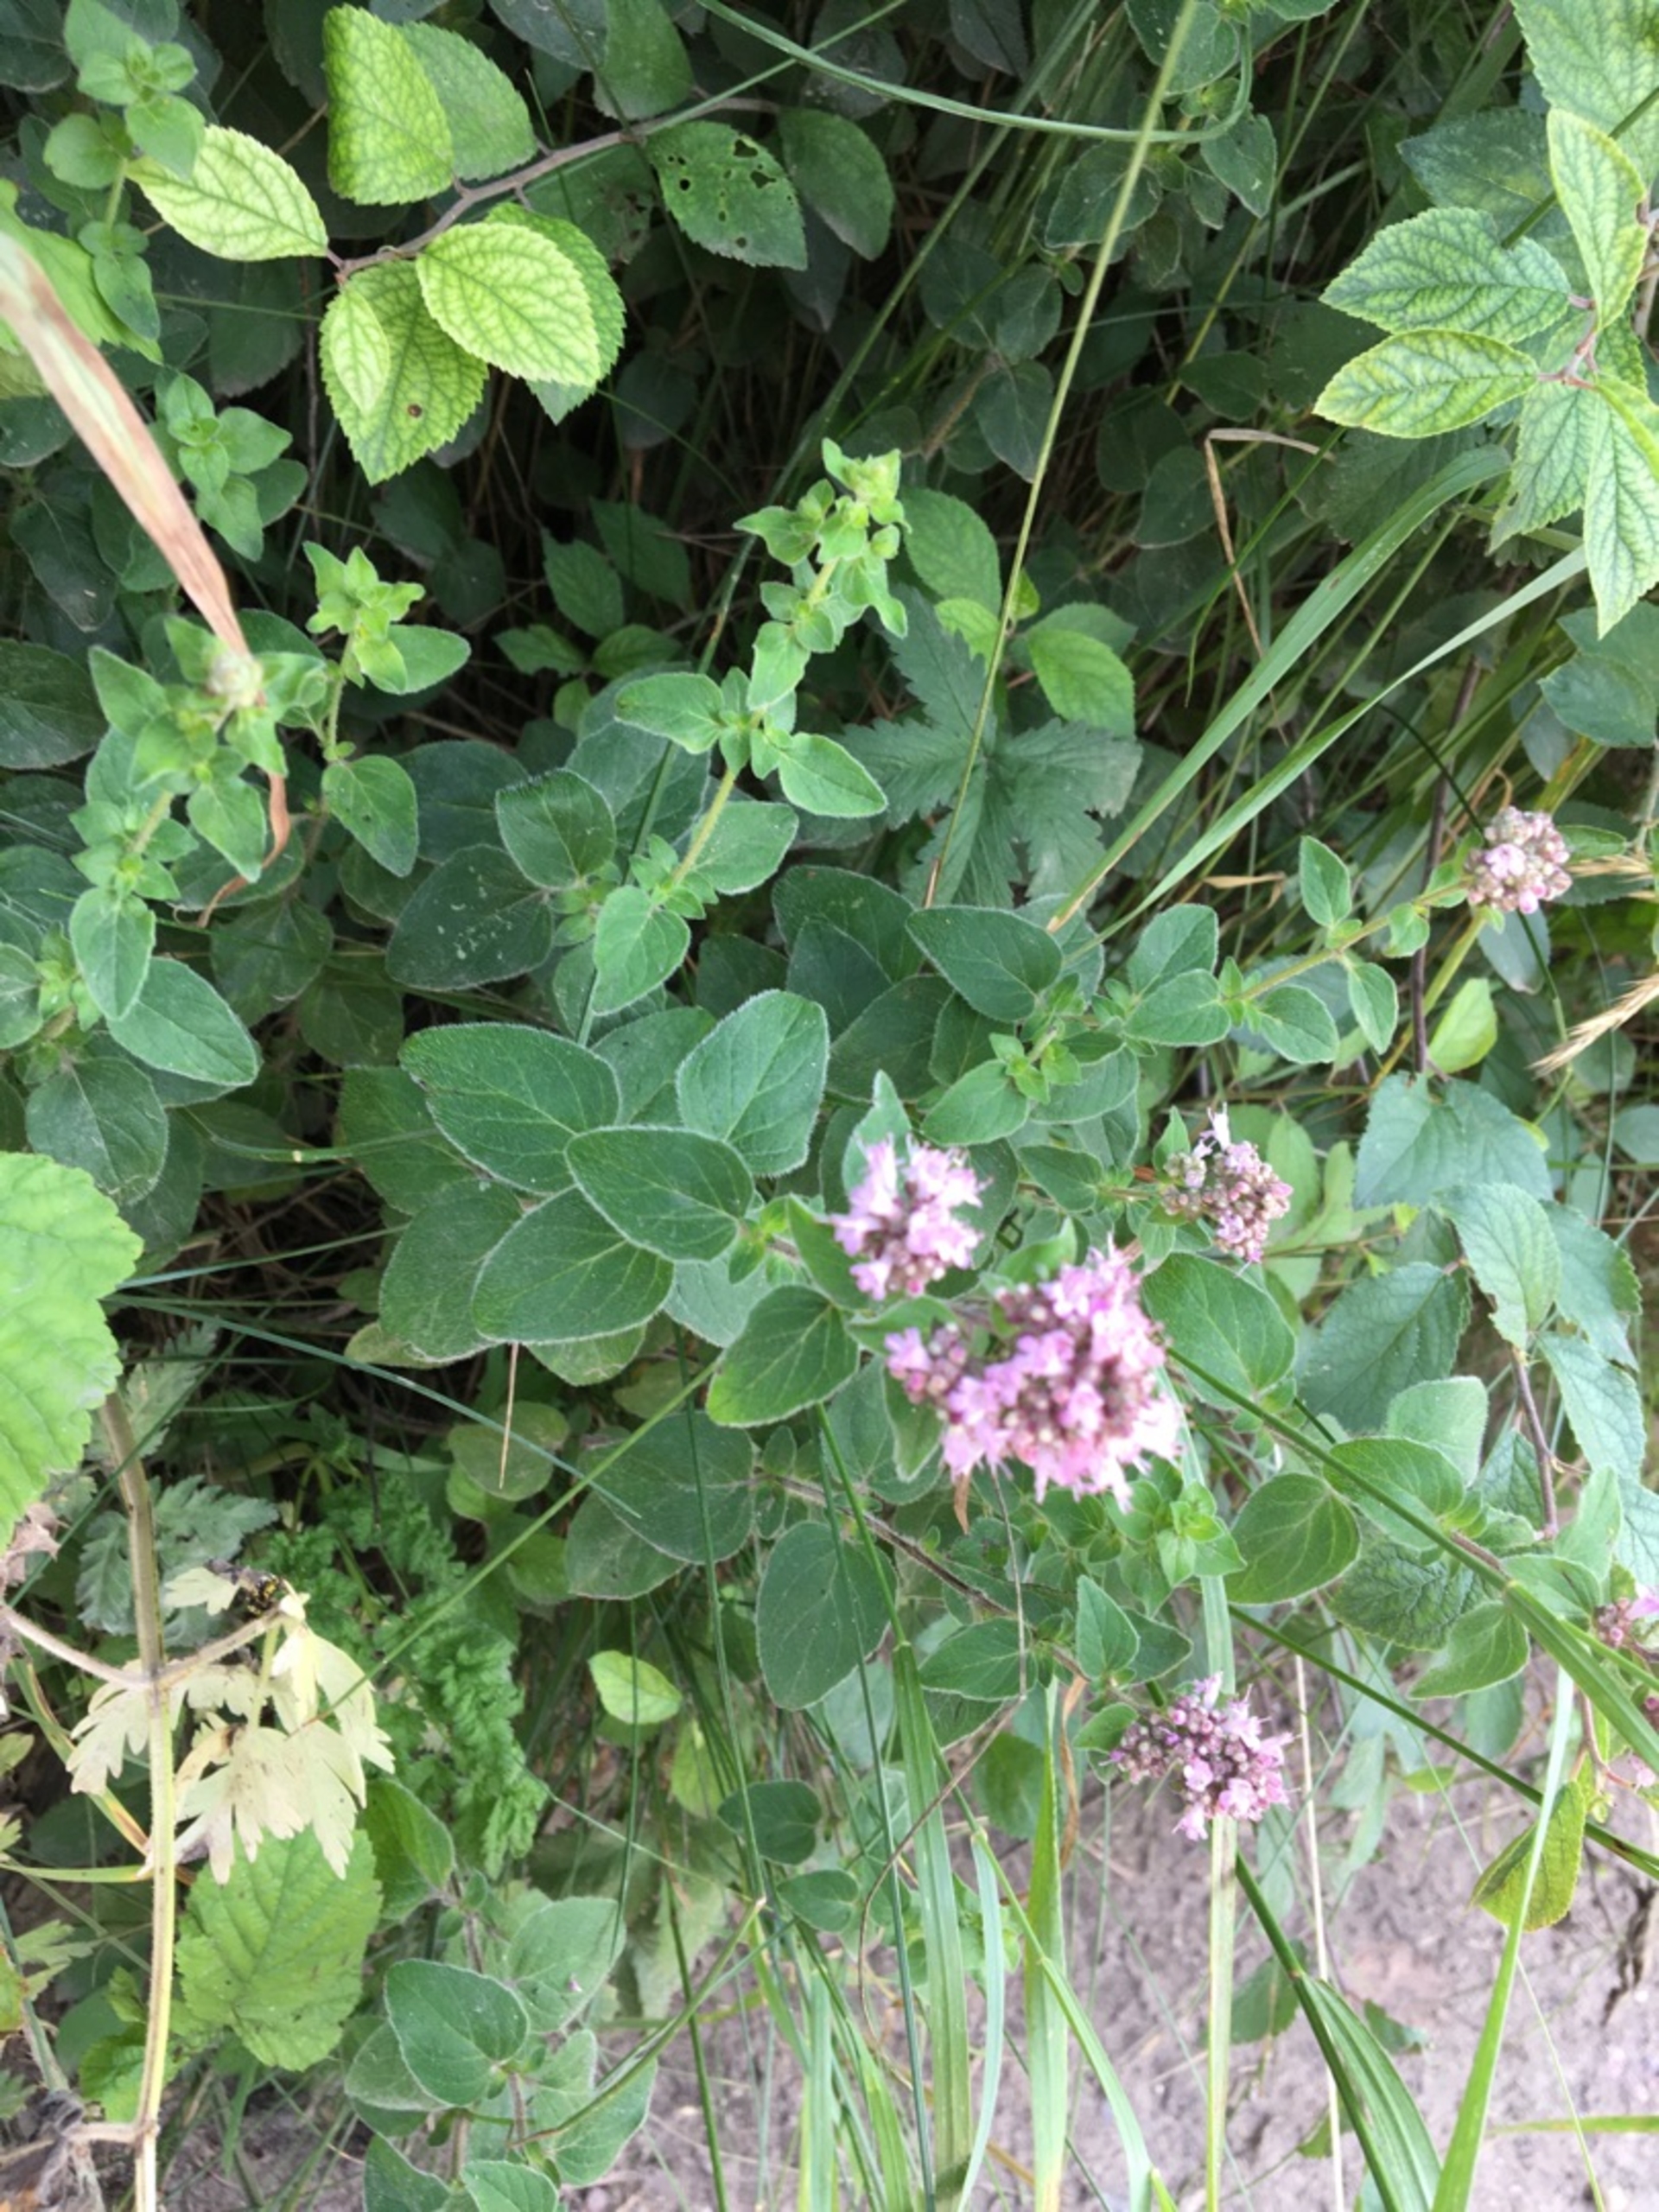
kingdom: Plantae
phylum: Tracheophyta
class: Magnoliopsida
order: Lamiales
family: Lamiaceae
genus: Origanum
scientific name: Origanum vulgare
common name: Merian
